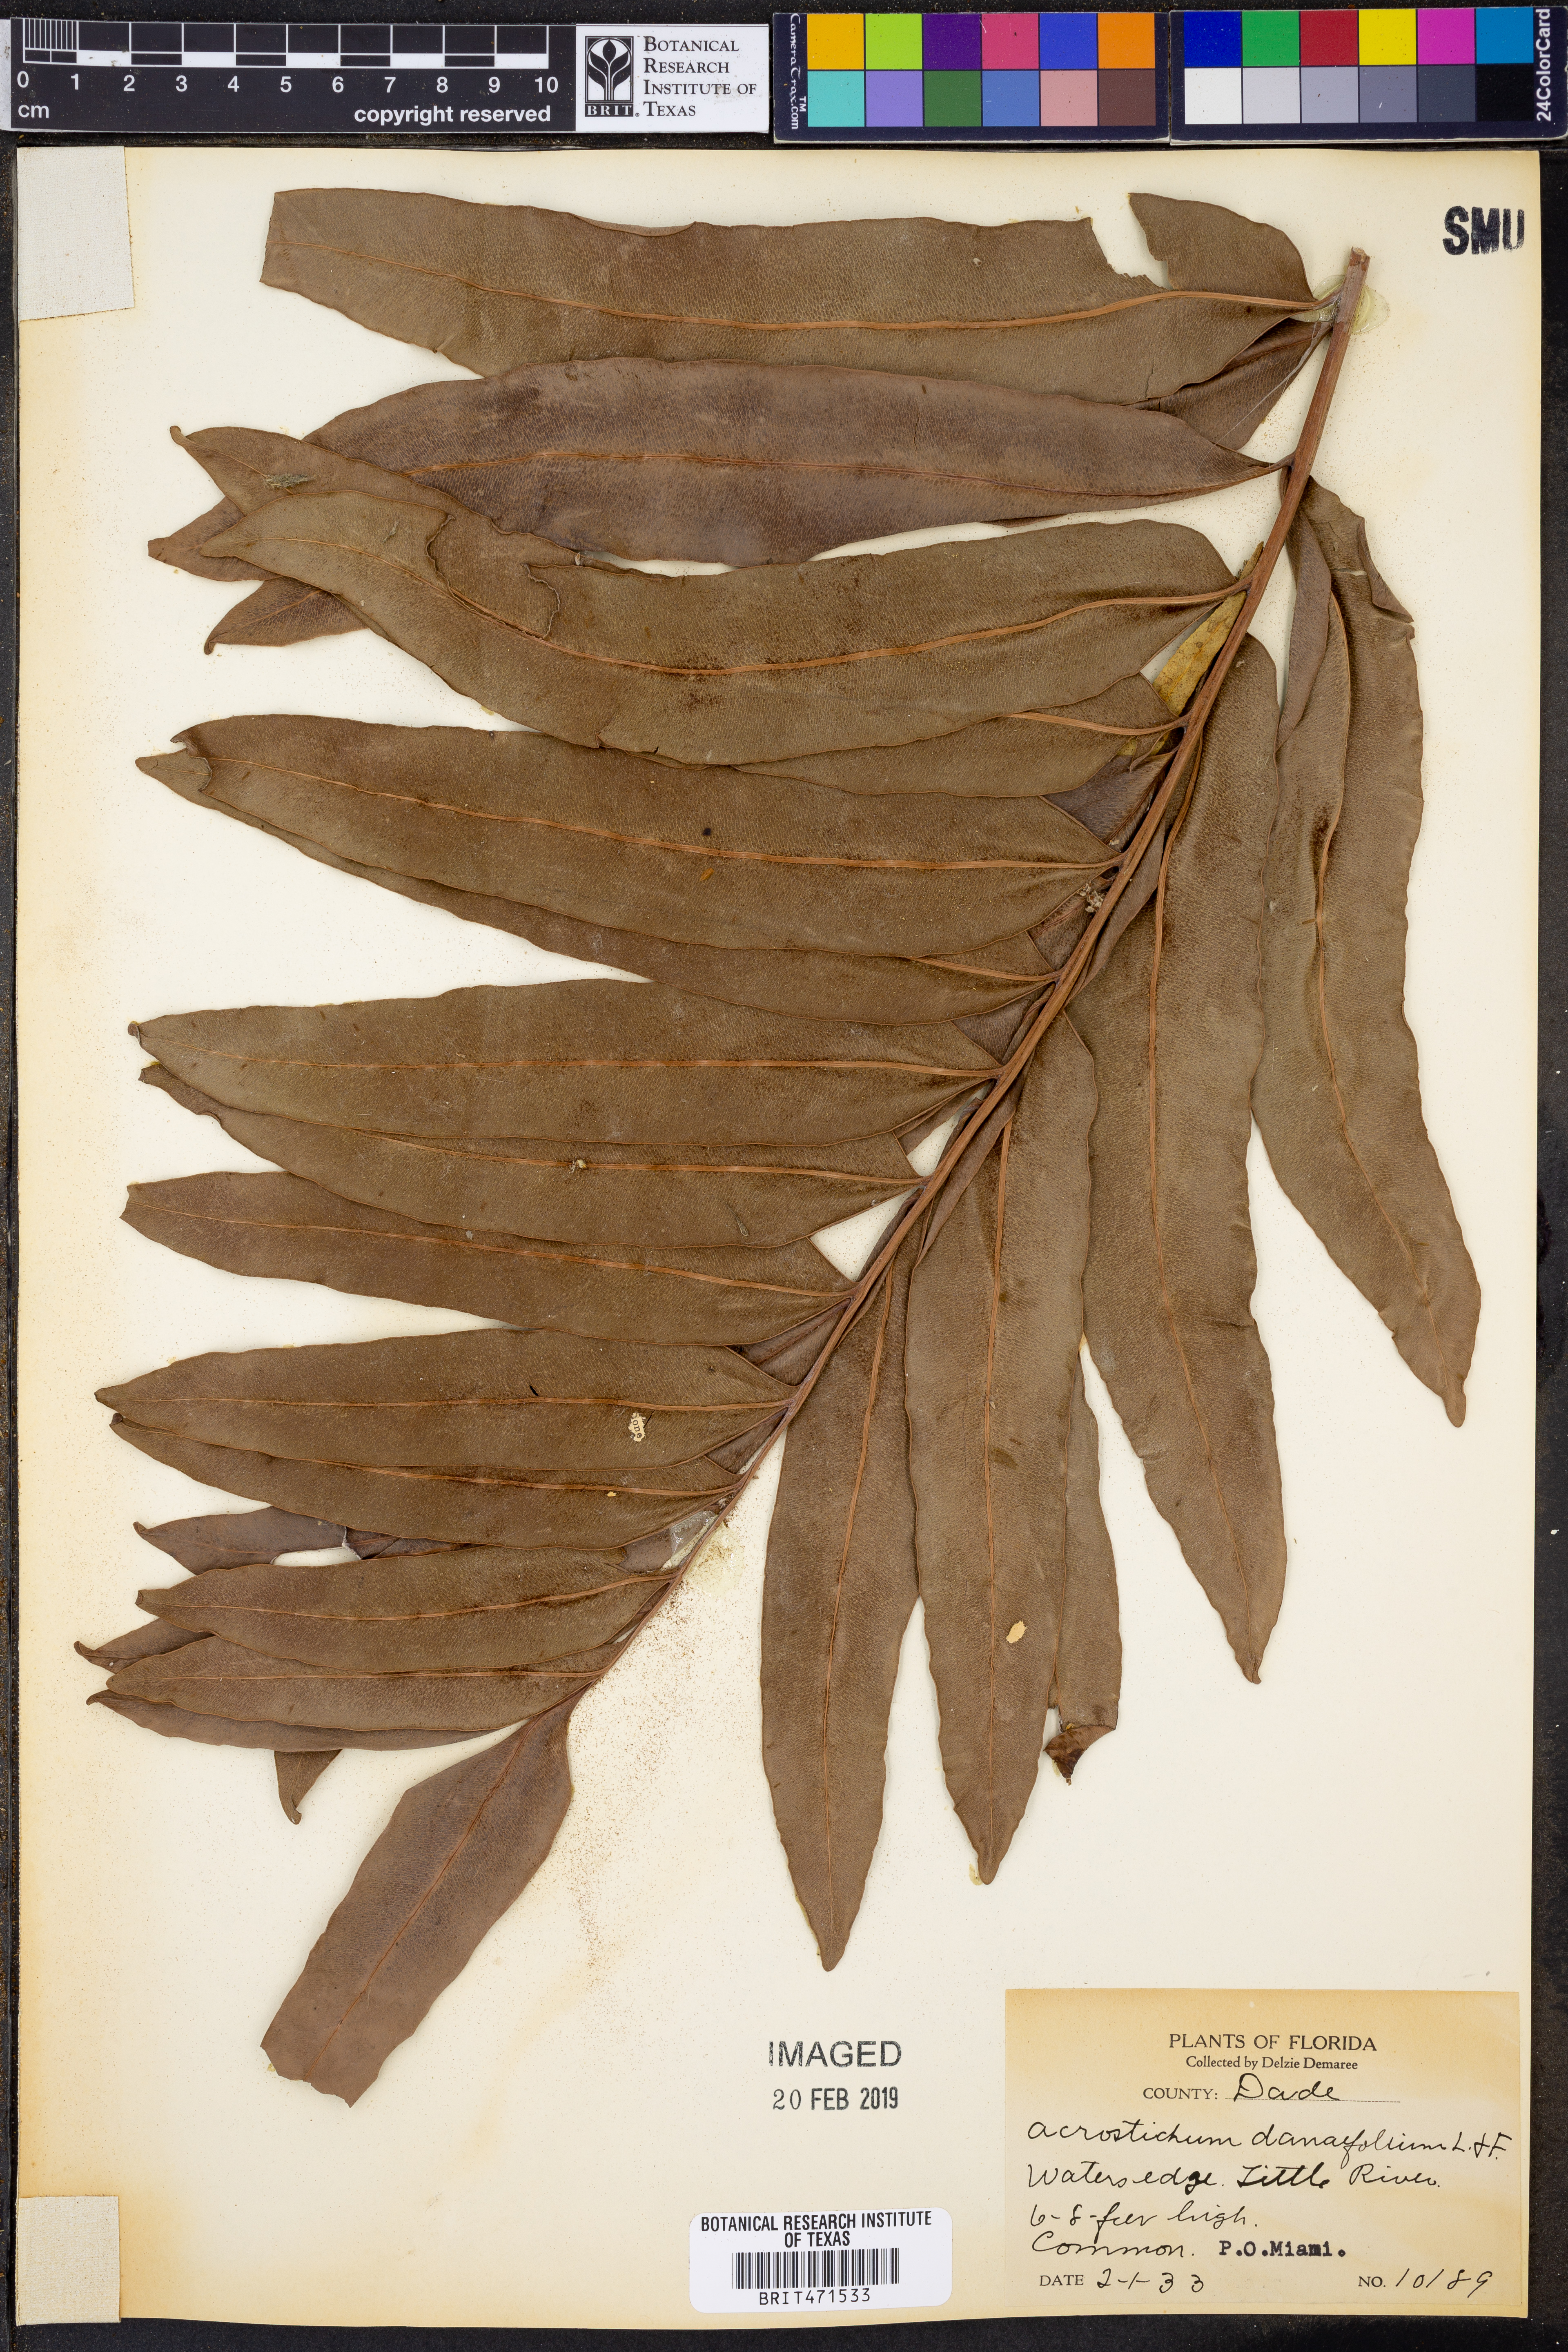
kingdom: Plantae
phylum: Tracheophyta
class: Polypodiopsida
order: Polypodiales
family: Pteridaceae
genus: Acrostichum
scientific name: Acrostichum danaeifolium
